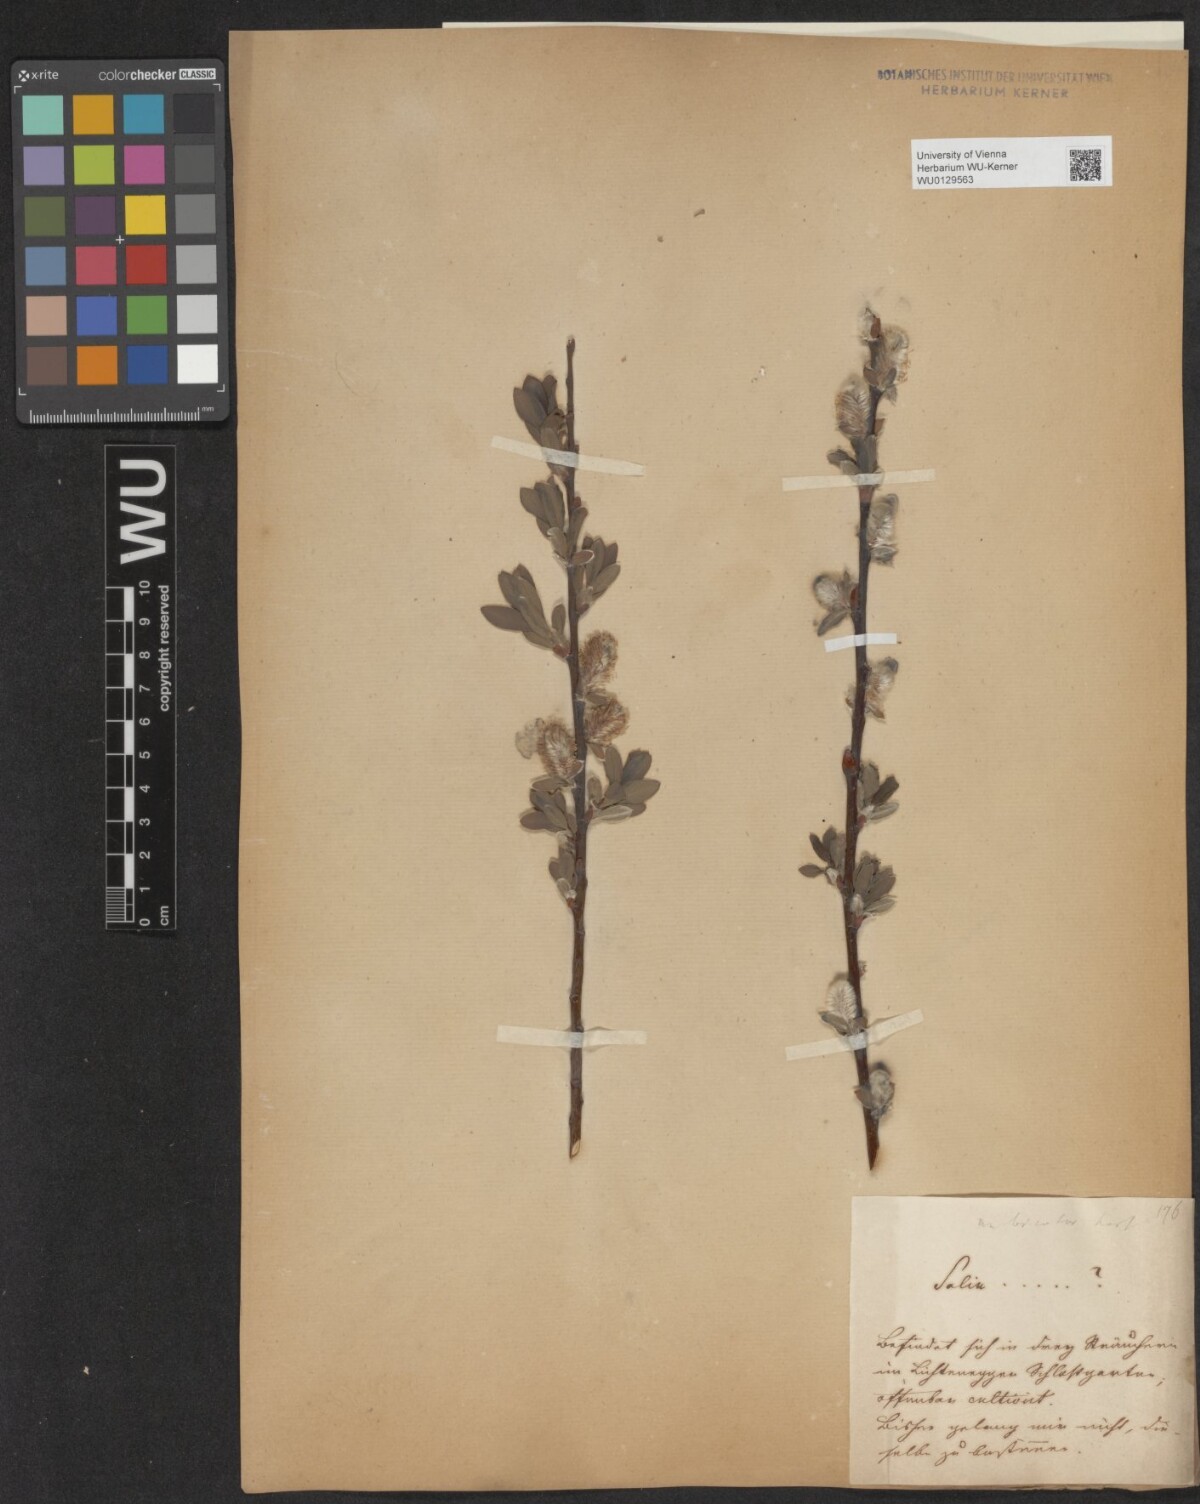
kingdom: Plantae
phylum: Tracheophyta
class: Magnoliopsida
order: Malpighiales
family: Salicaceae
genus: Salix
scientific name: Salix bicolor
